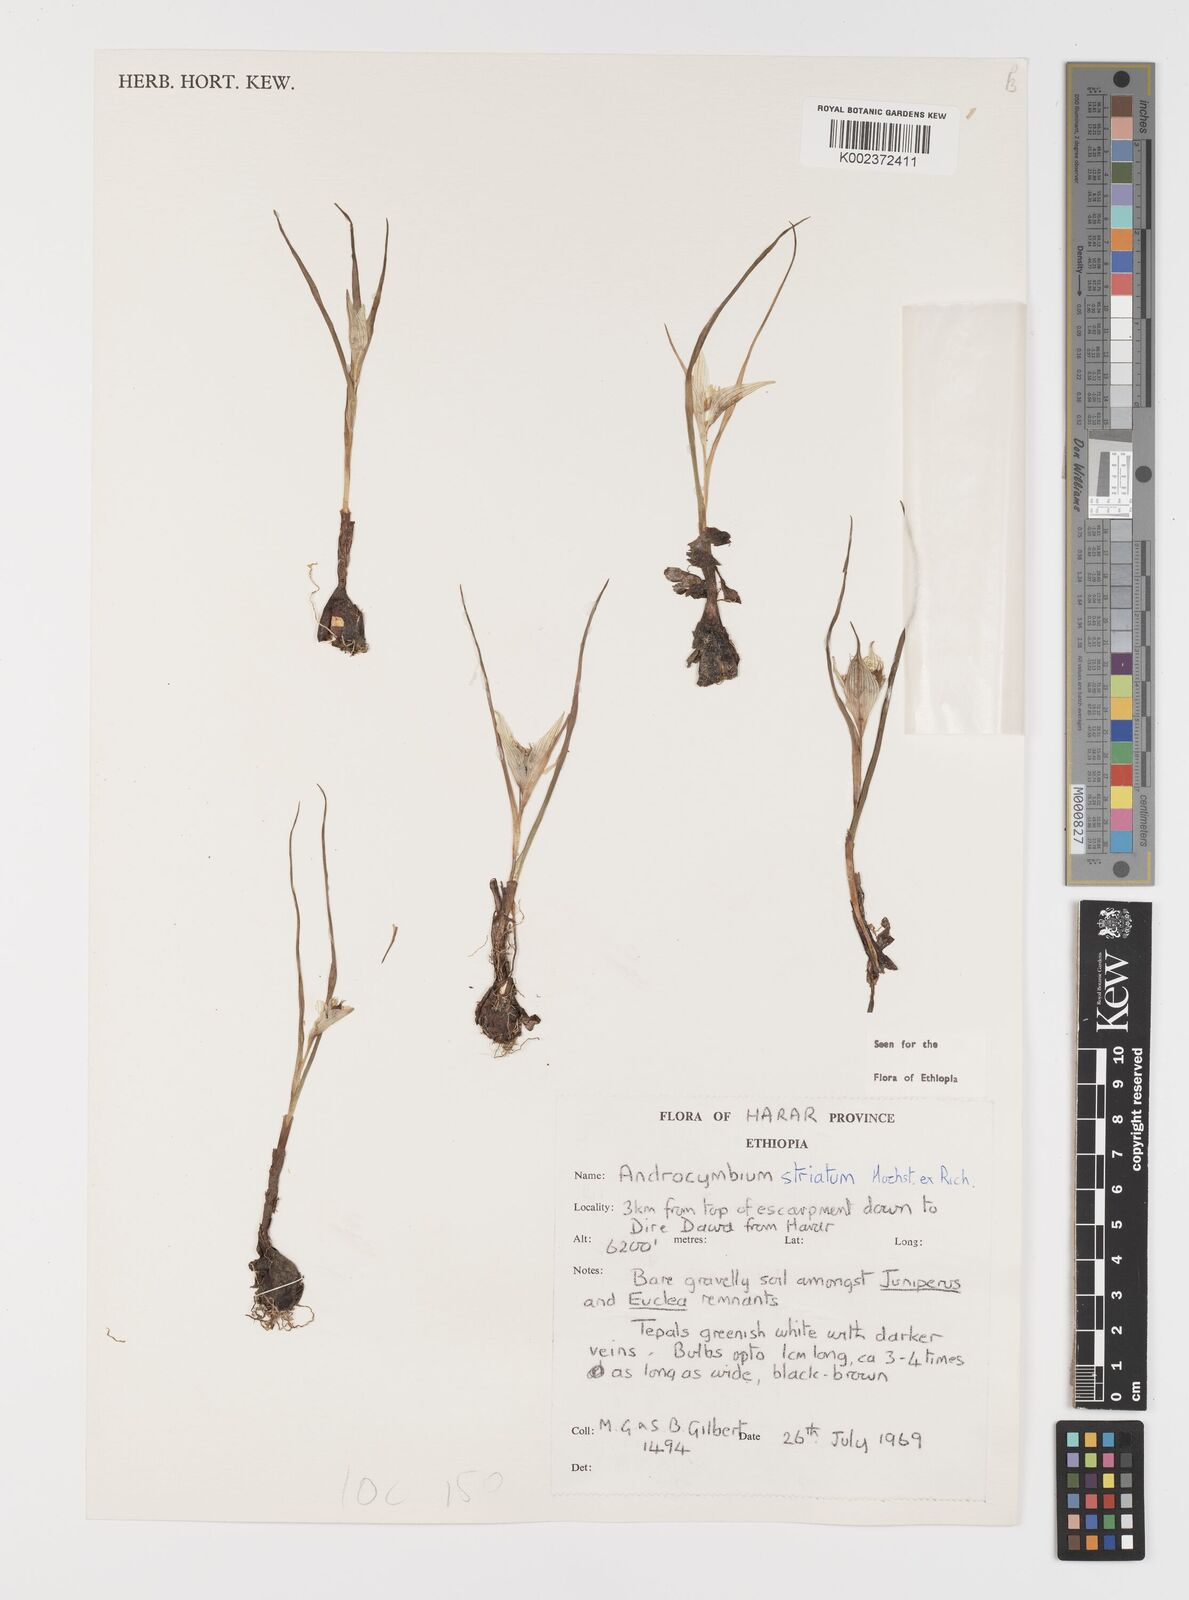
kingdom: Plantae
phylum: Tracheophyta
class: Liliopsida
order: Liliales
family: Colchicaceae
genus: Colchicum
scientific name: Colchicum striatum
